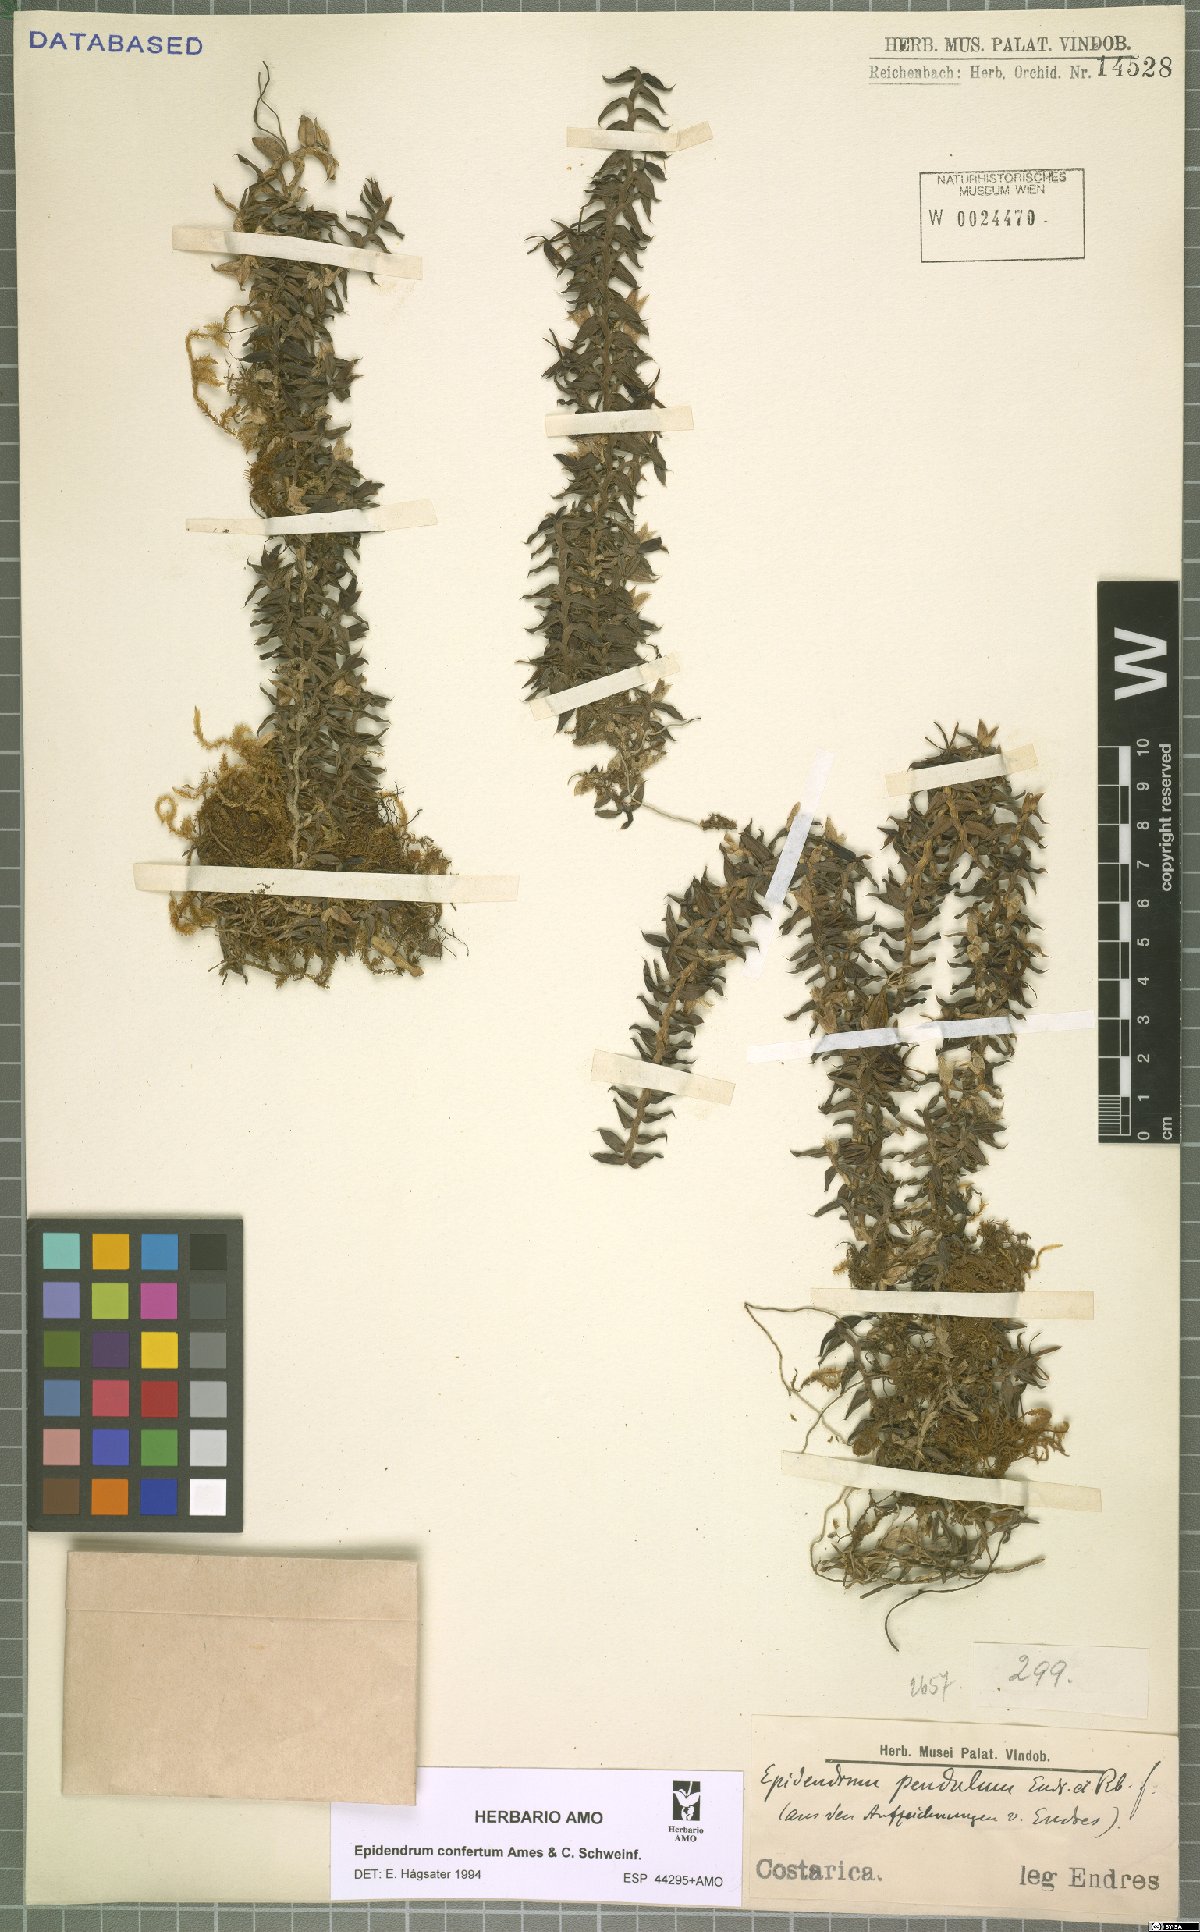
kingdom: Plantae
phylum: Tracheophyta
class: Liliopsida
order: Asparagales
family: Orchidaceae
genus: Epidendrum
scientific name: Epidendrum confertum
